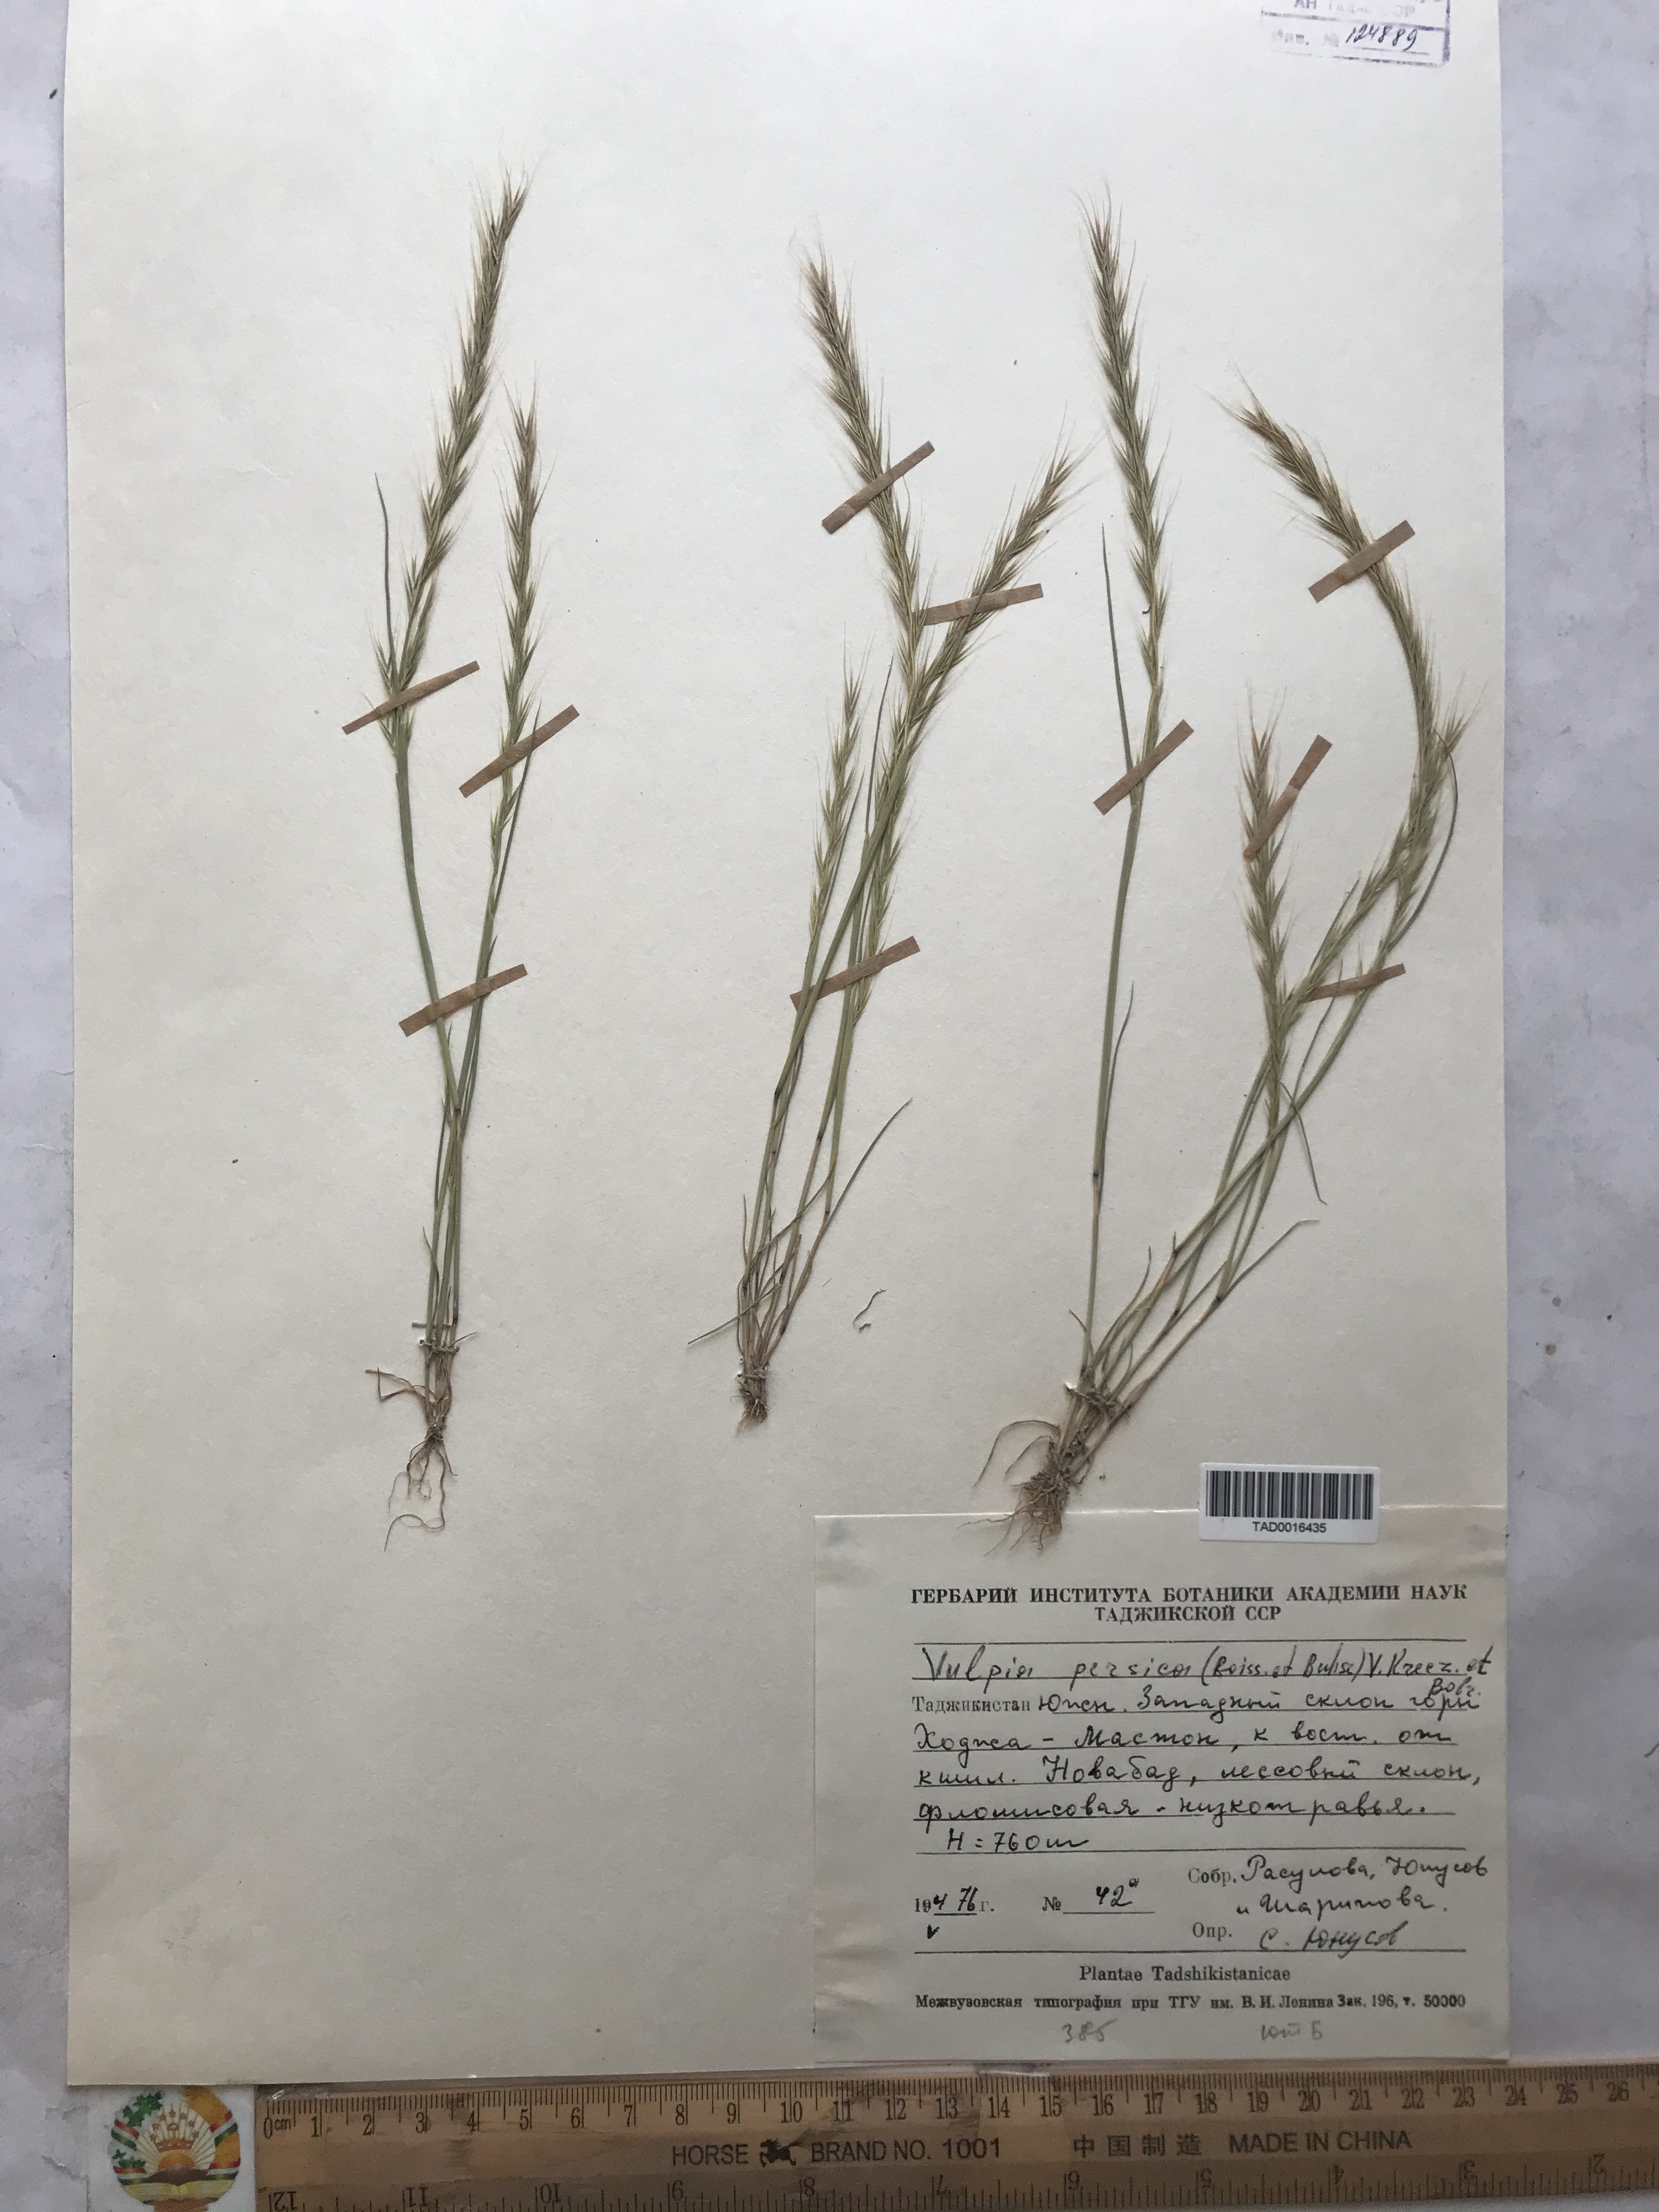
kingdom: Plantae
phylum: Tracheophyta
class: Liliopsida
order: Poales
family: Poaceae
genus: Festuca
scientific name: Festuca Vulpia persica
